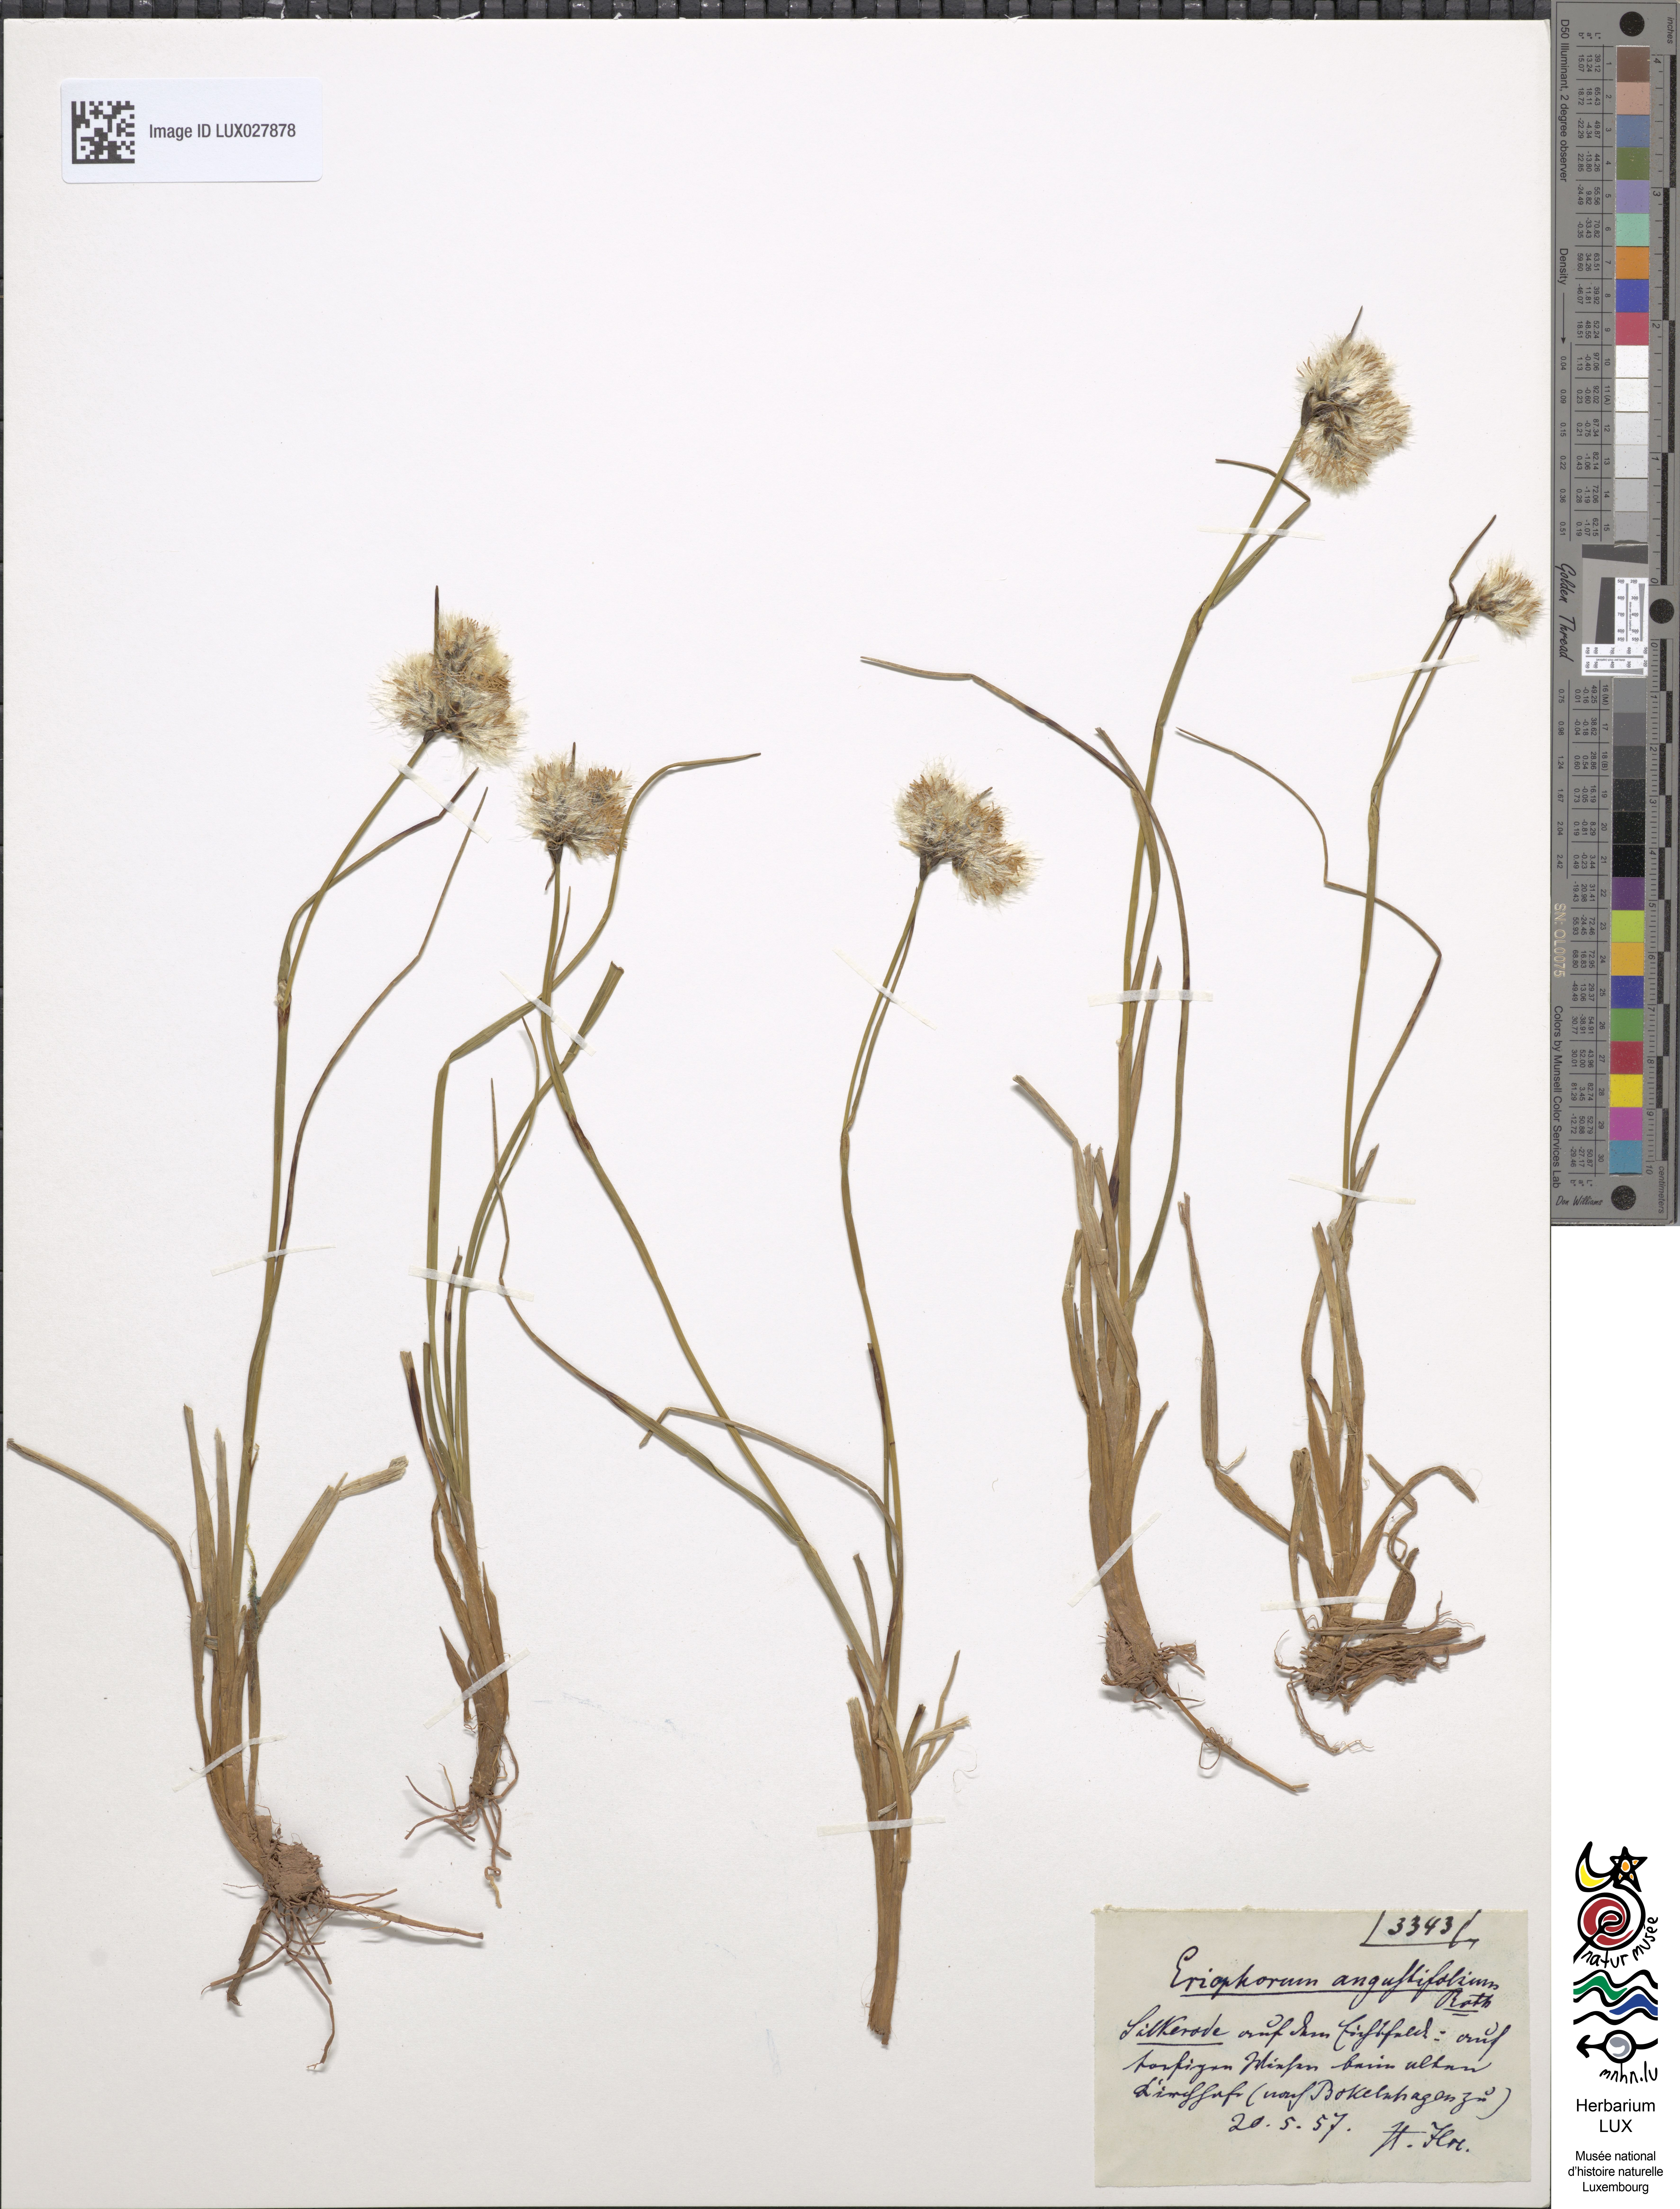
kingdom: Plantae
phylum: Tracheophyta
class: Liliopsida
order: Poales
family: Cyperaceae
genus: Eriophorum
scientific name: Eriophorum angustifolium
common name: Common cottongrass
